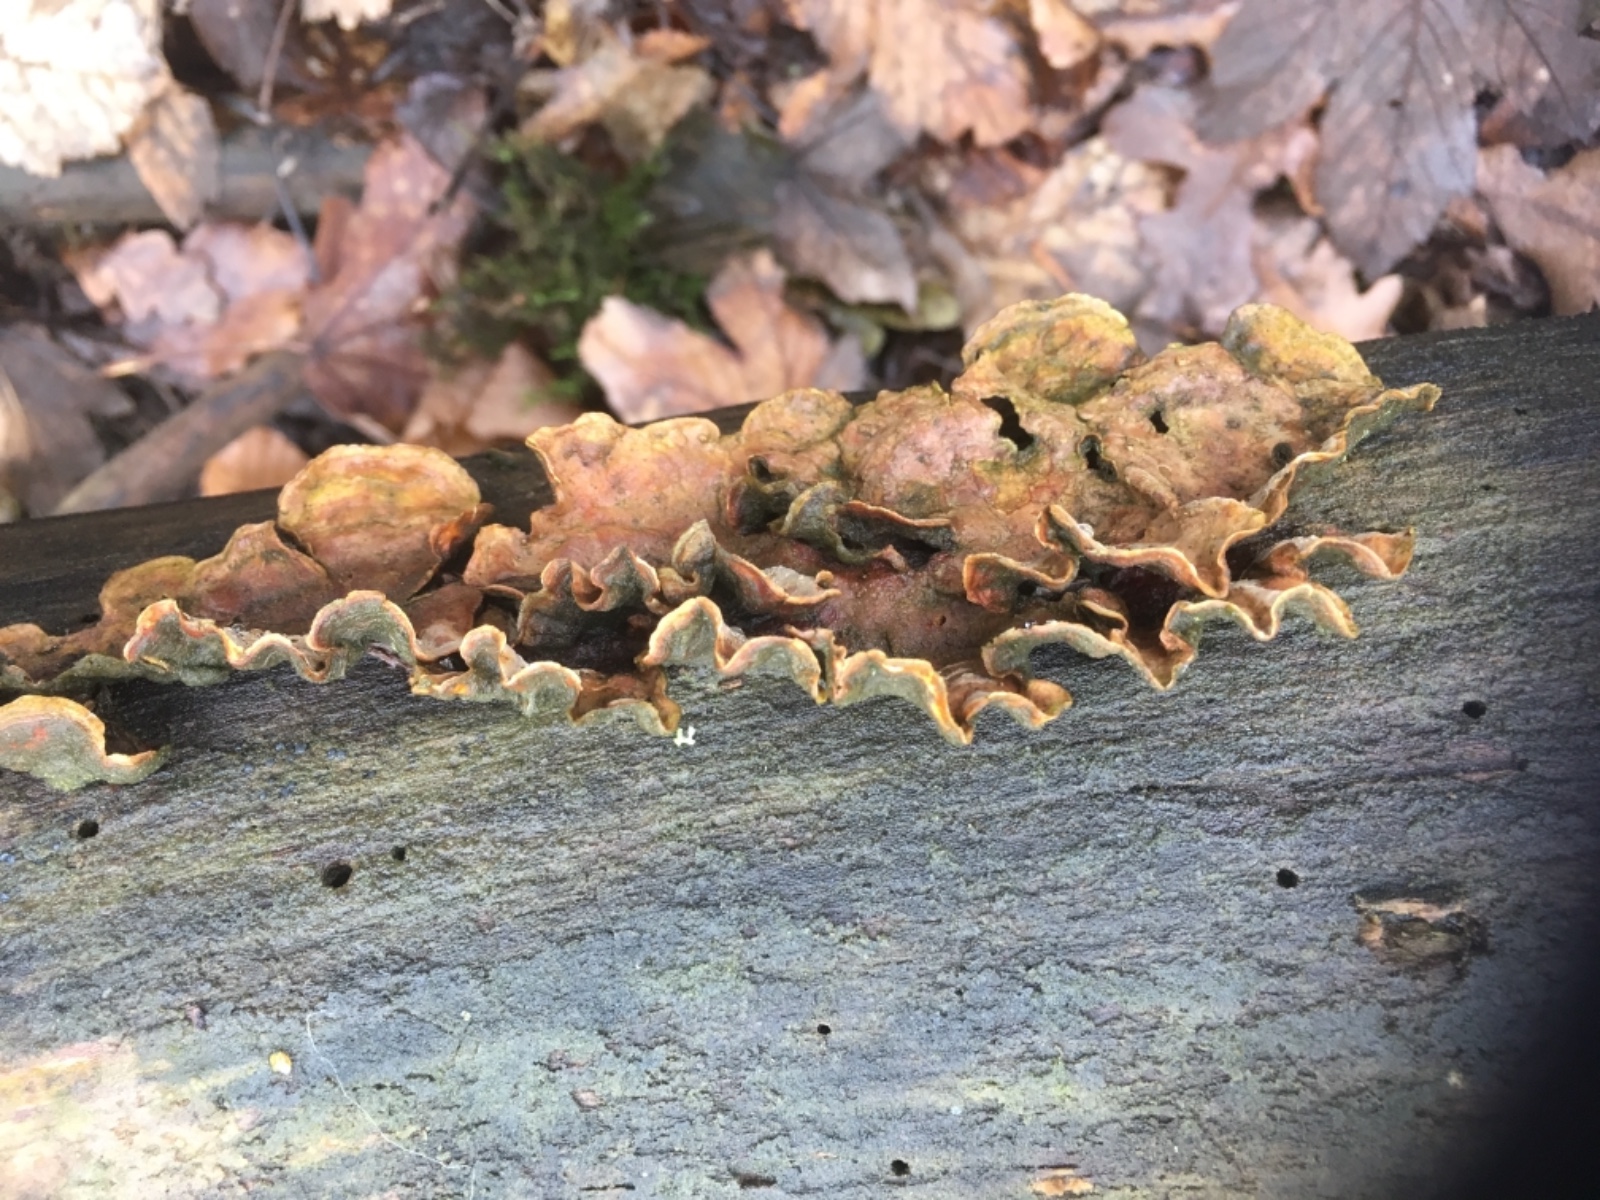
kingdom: Fungi
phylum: Basidiomycota
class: Agaricomycetes
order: Russulales
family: Stereaceae
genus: Stereum
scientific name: Stereum hirsutum
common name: håret lædersvamp
